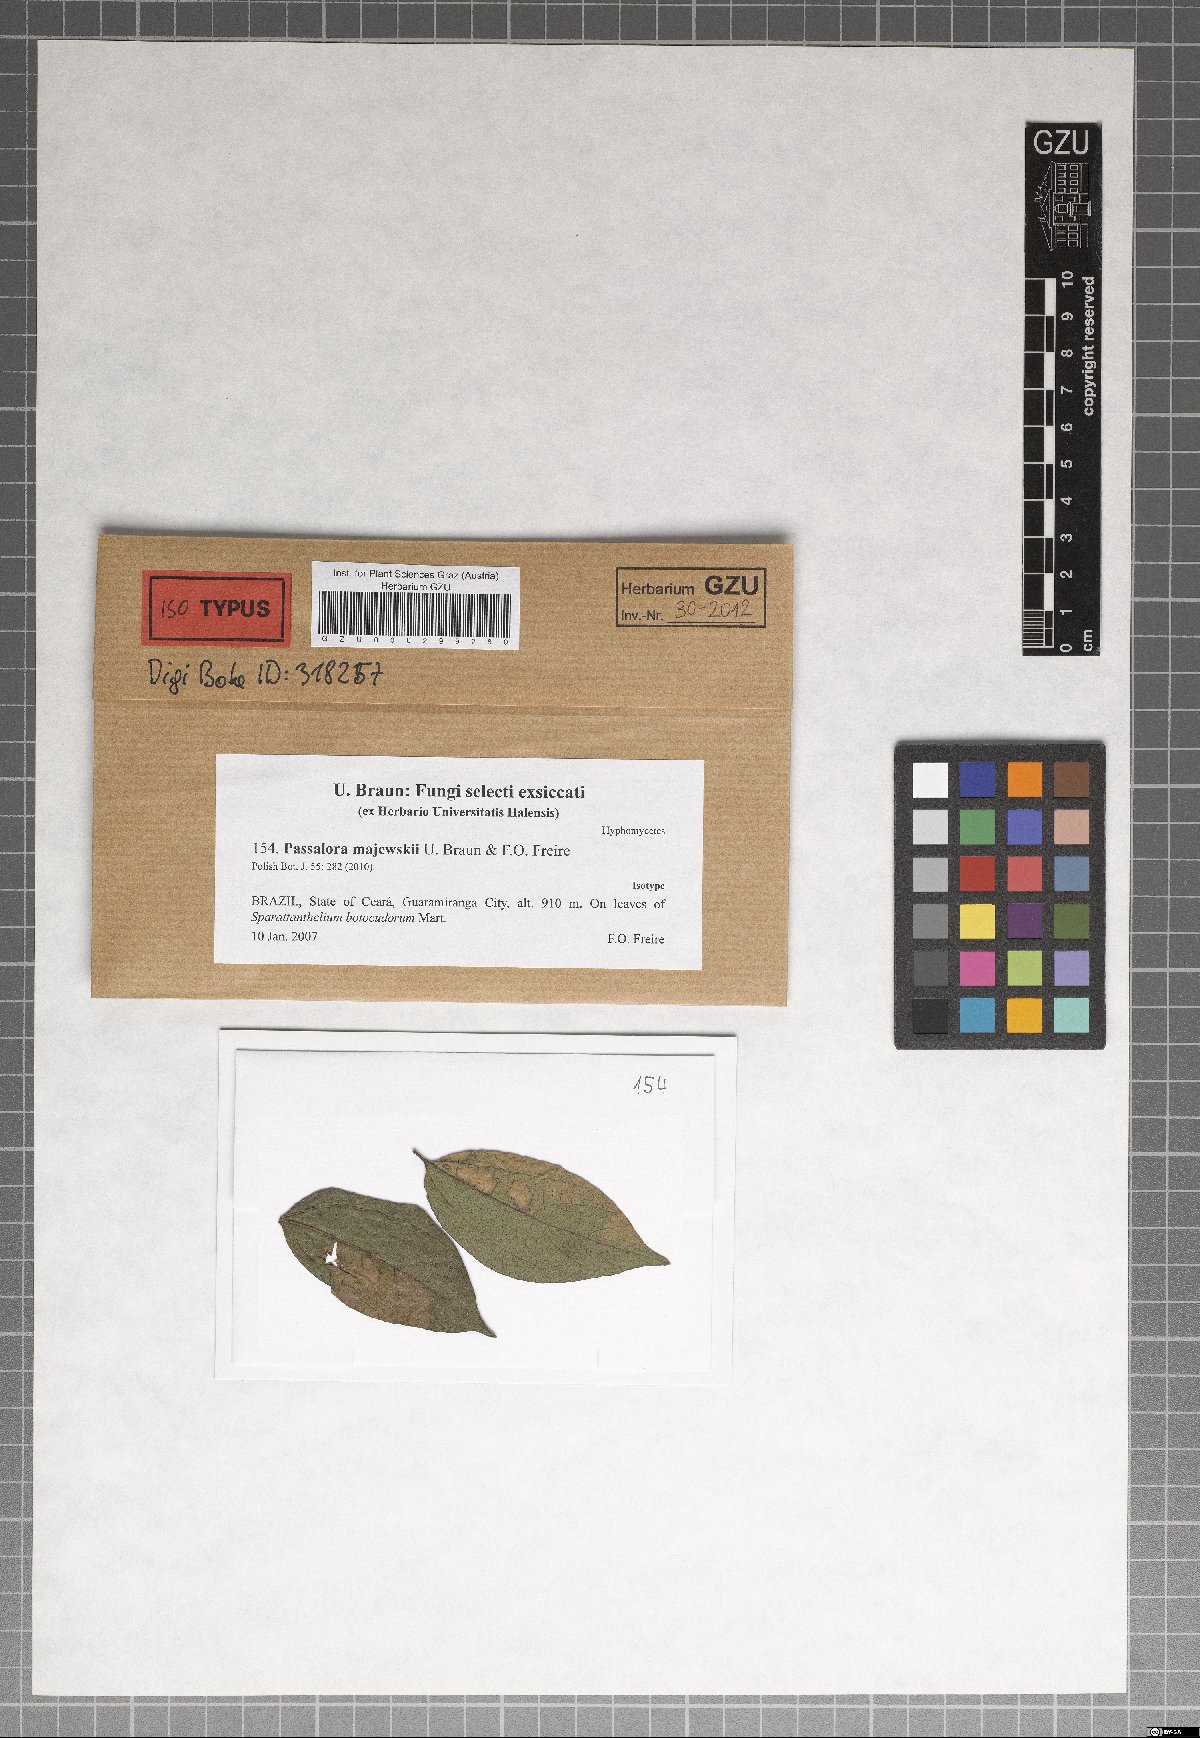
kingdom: Fungi
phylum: Ascomycota
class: Dothideomycetes
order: Mycosphaerellales
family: Mycosphaerellaceae
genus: Passalora
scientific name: Passalora majewskii
